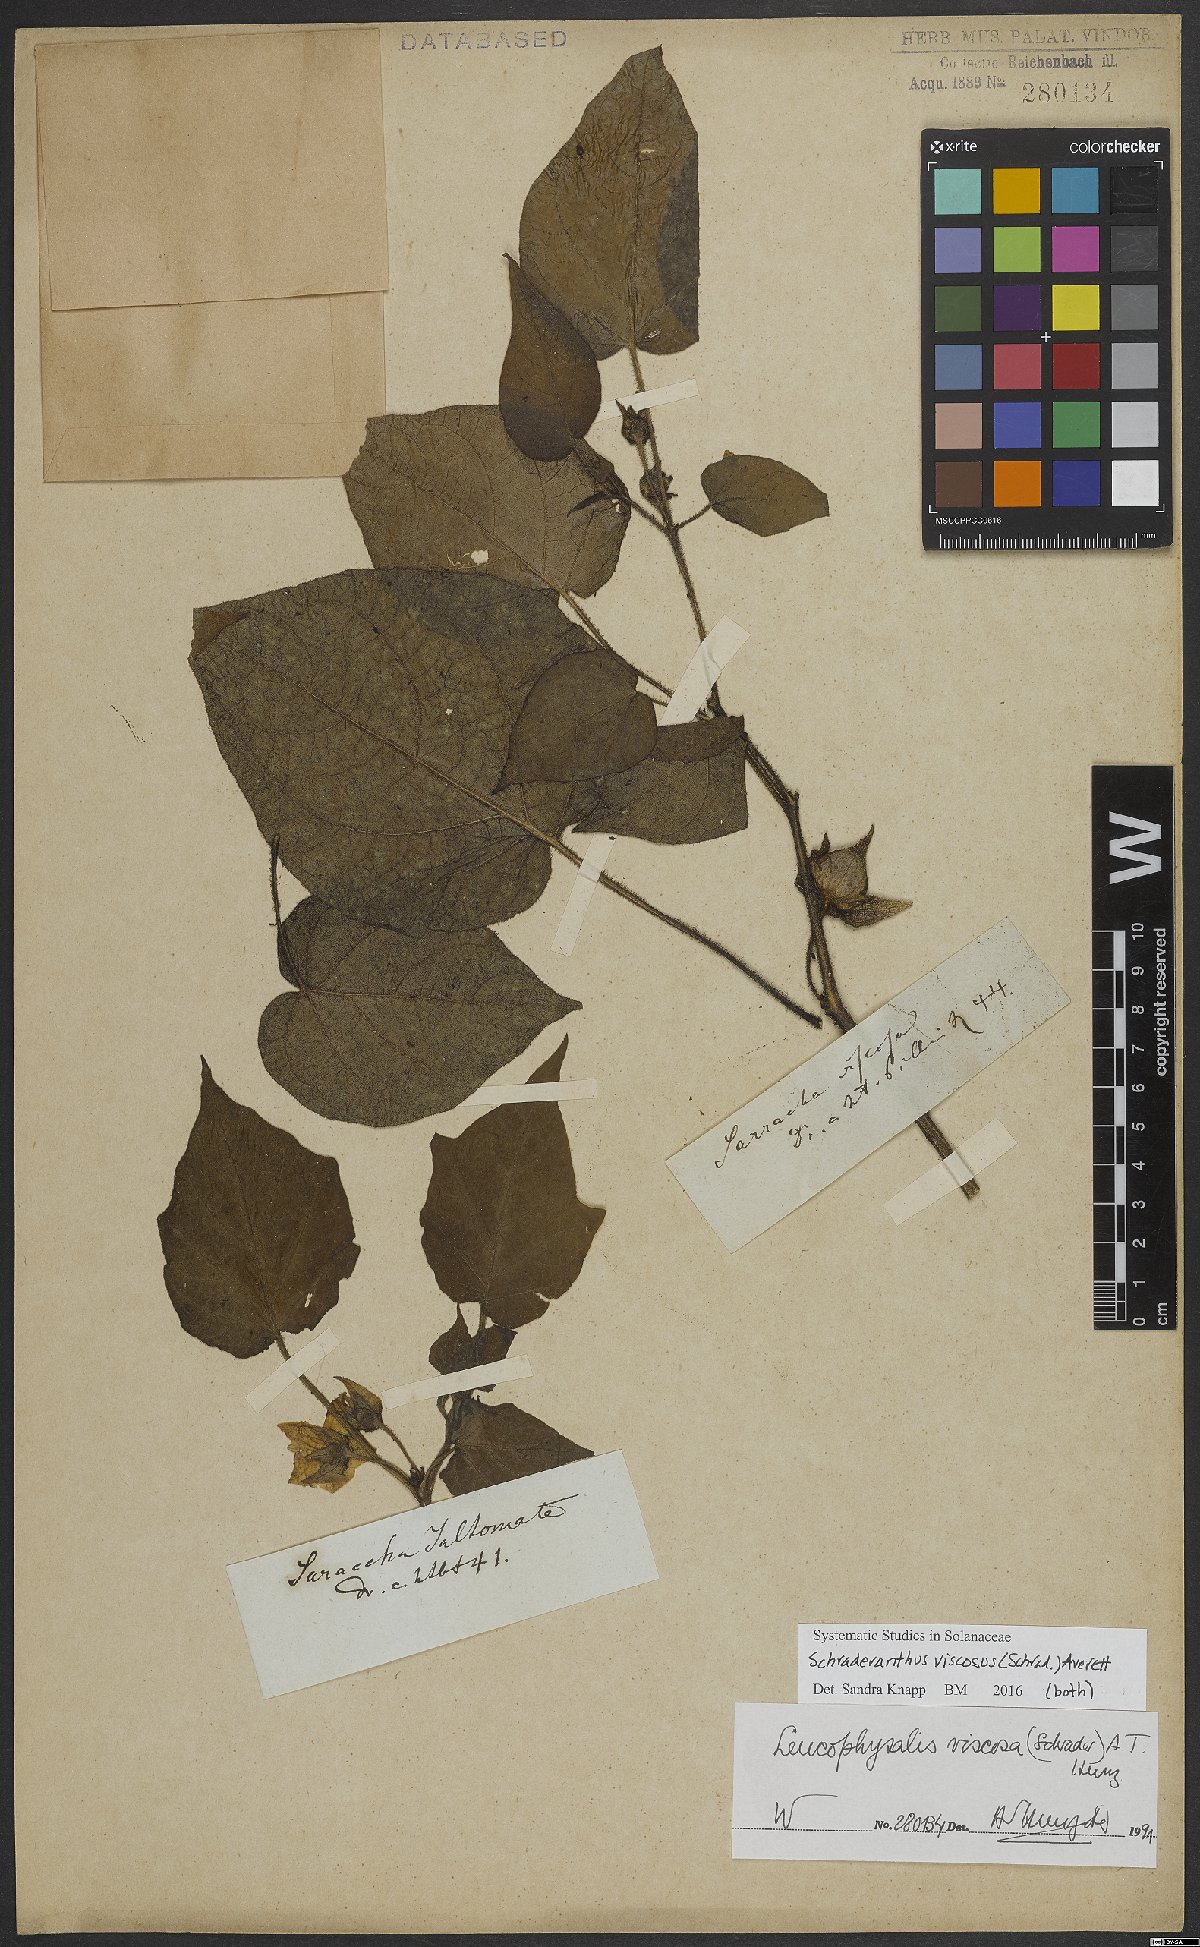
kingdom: Plantae
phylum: Tracheophyta
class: Magnoliopsida
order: Solanales
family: Solanaceae
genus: Schraderanthus
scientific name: Schraderanthus viscosus
